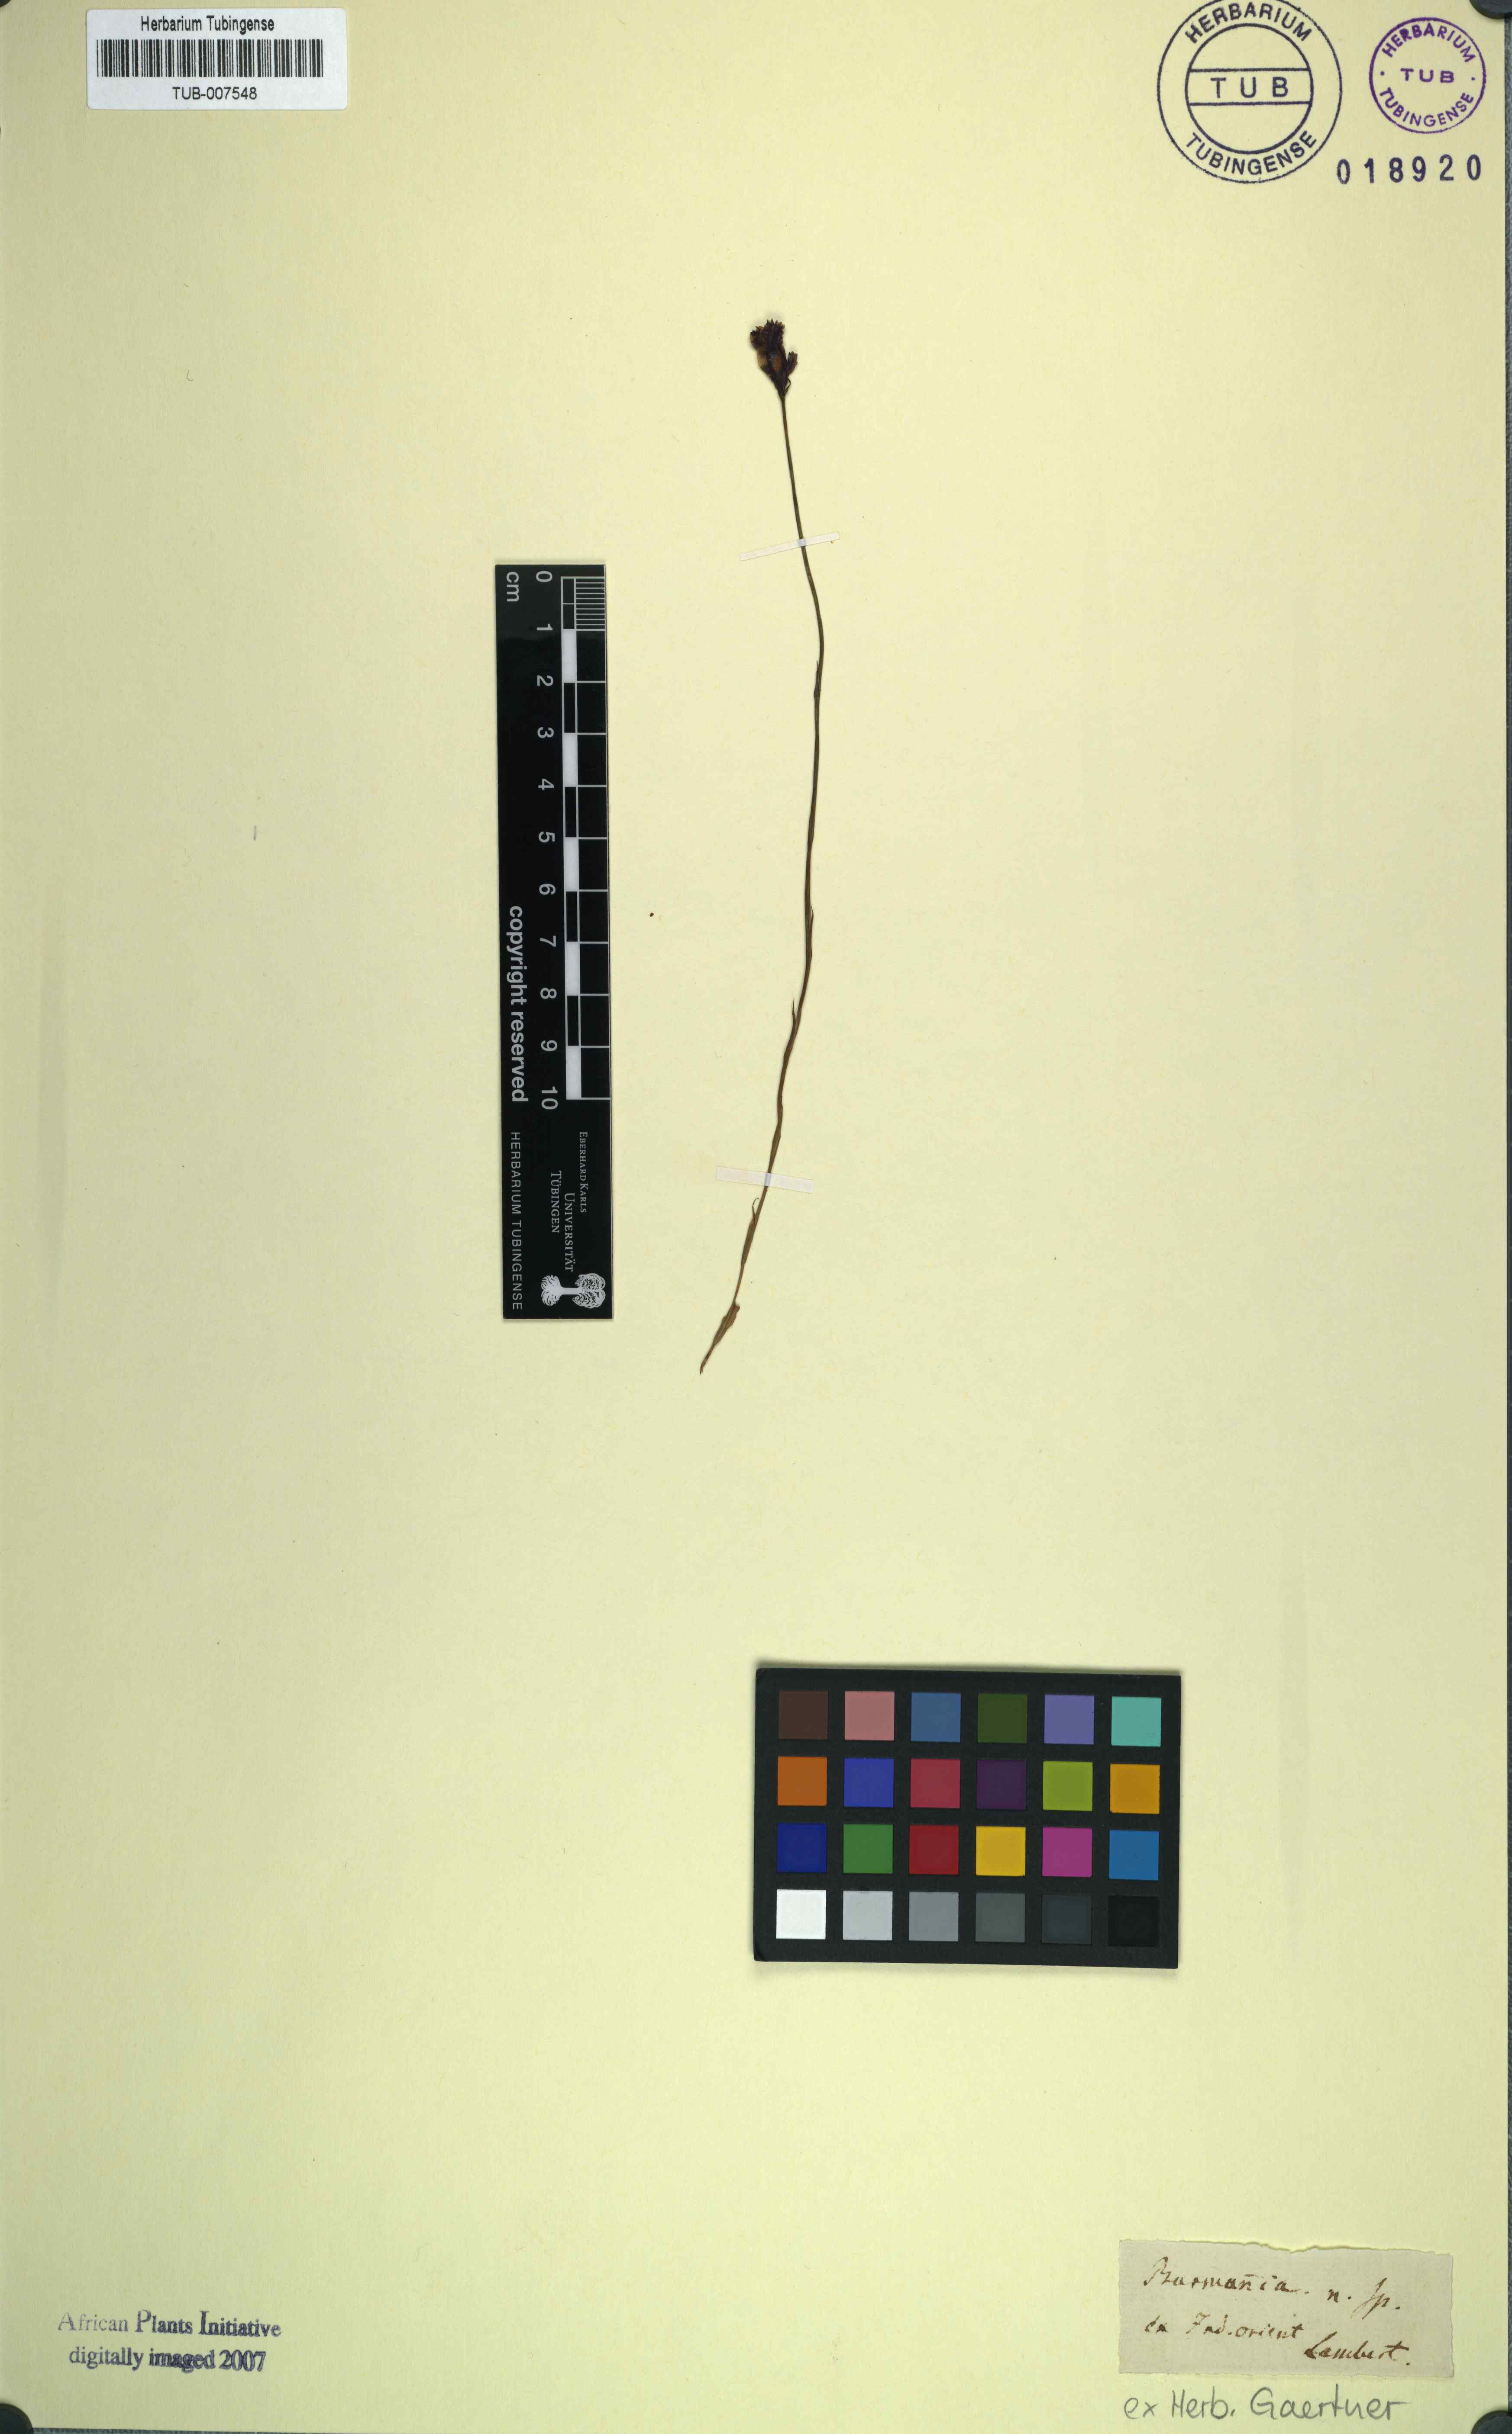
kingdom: Plantae
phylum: Tracheophyta
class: Liliopsida
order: Dioscoreales
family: Burmanniaceae
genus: Burmannia
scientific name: Burmannia
